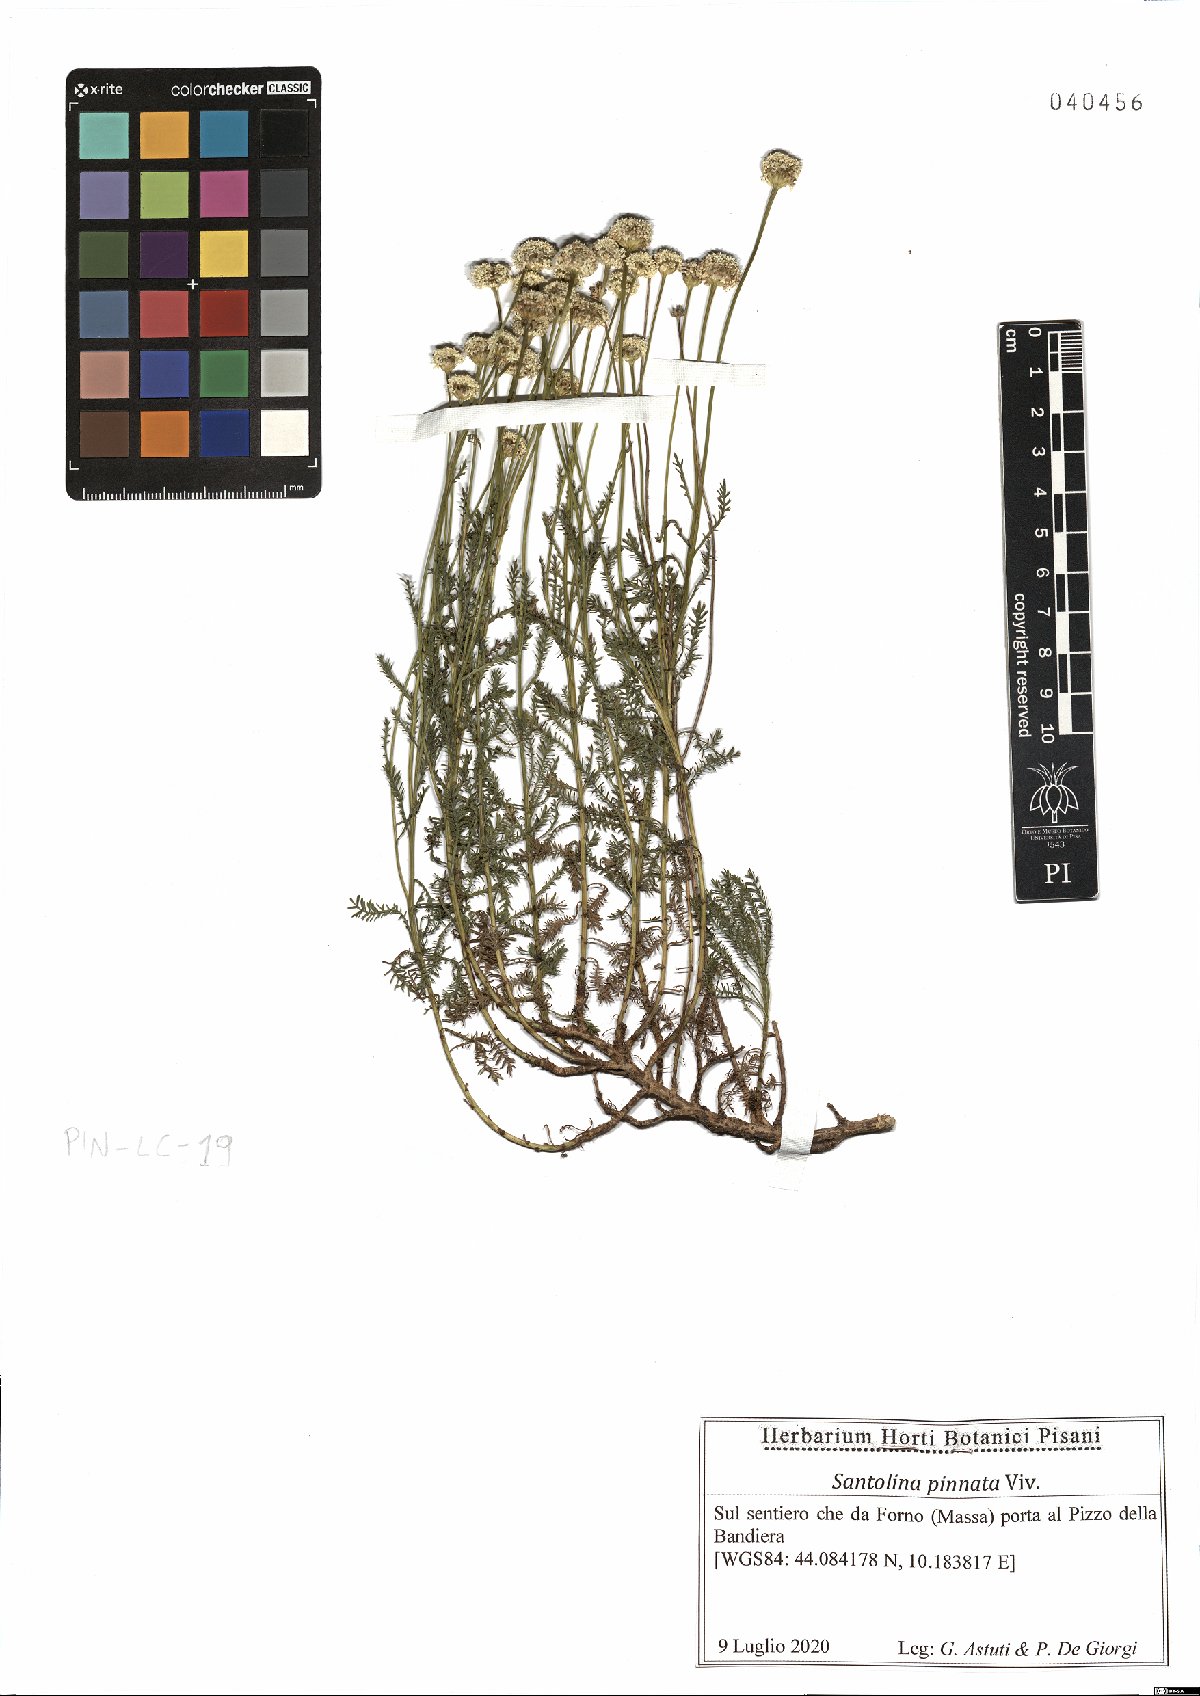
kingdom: Plantae
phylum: Tracheophyta
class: Magnoliopsida
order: Asterales
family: Asteraceae
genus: Santolina
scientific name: Santolina pinnata
